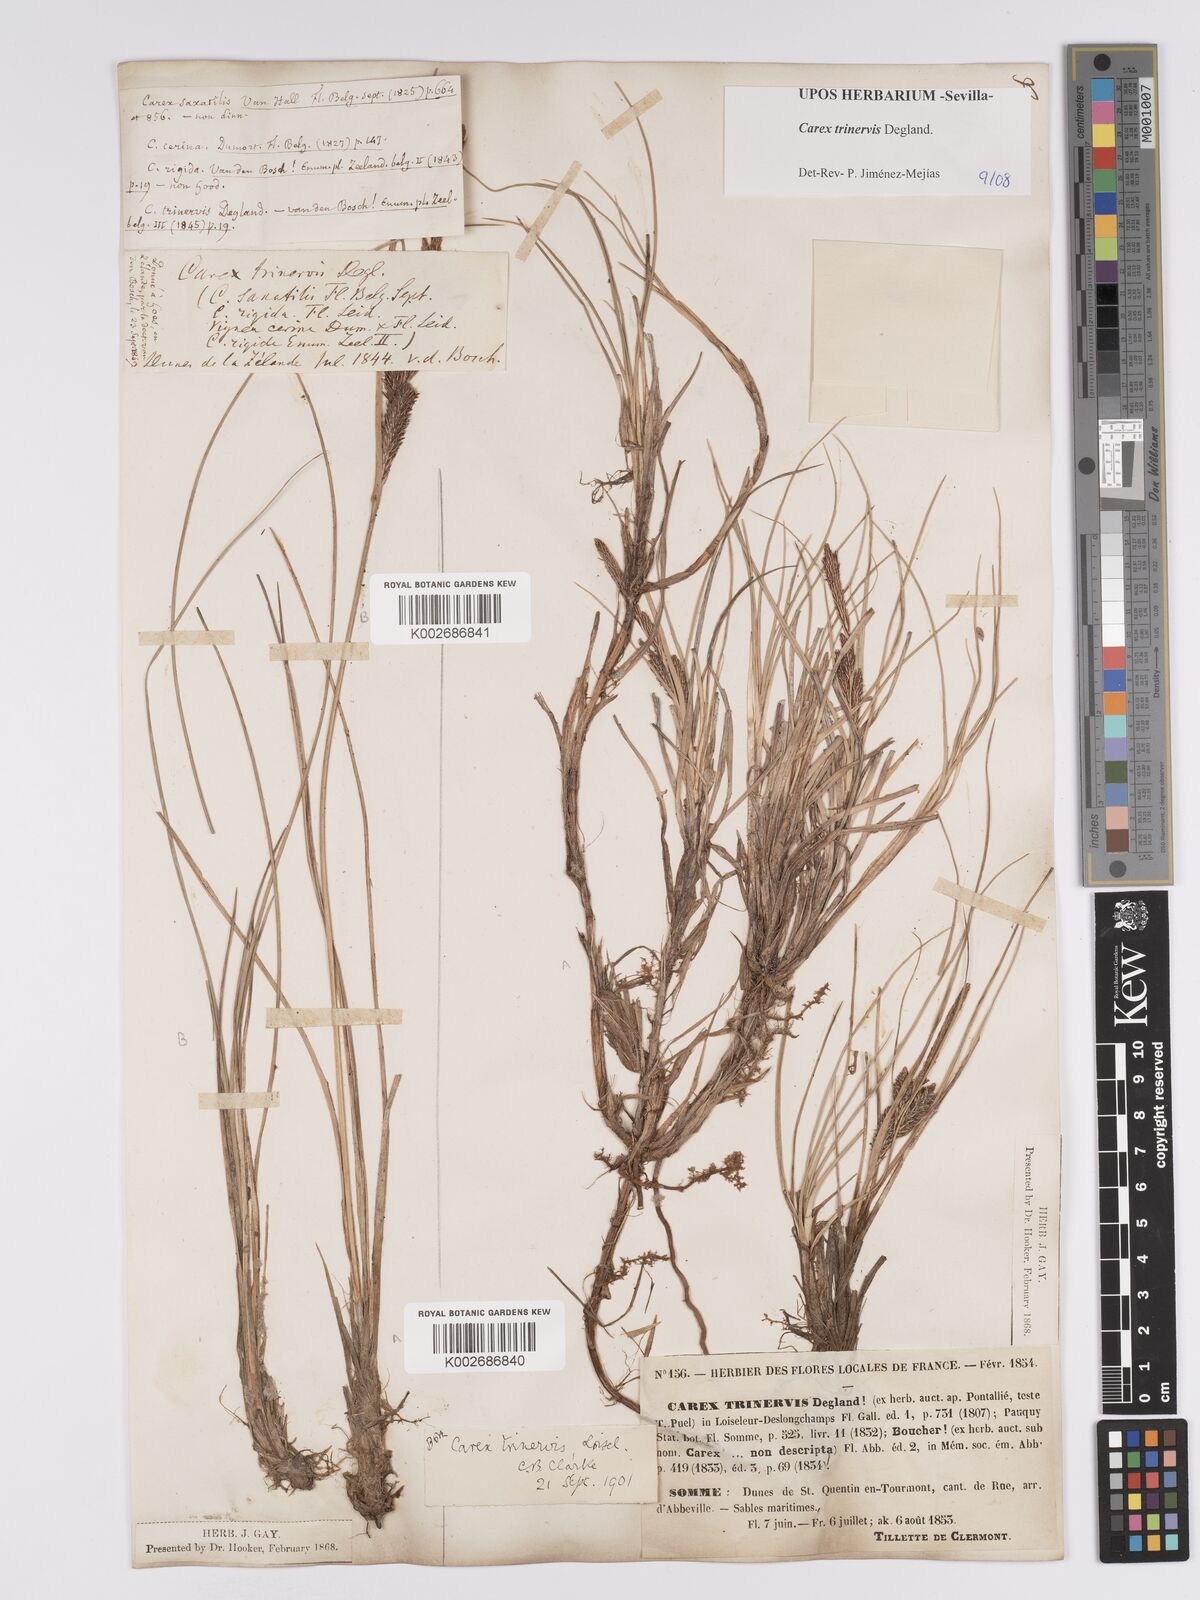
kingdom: Plantae
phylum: Tracheophyta
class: Liliopsida
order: Poales
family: Cyperaceae
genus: Carex
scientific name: Carex trinervis
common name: Three-nerved sedge
